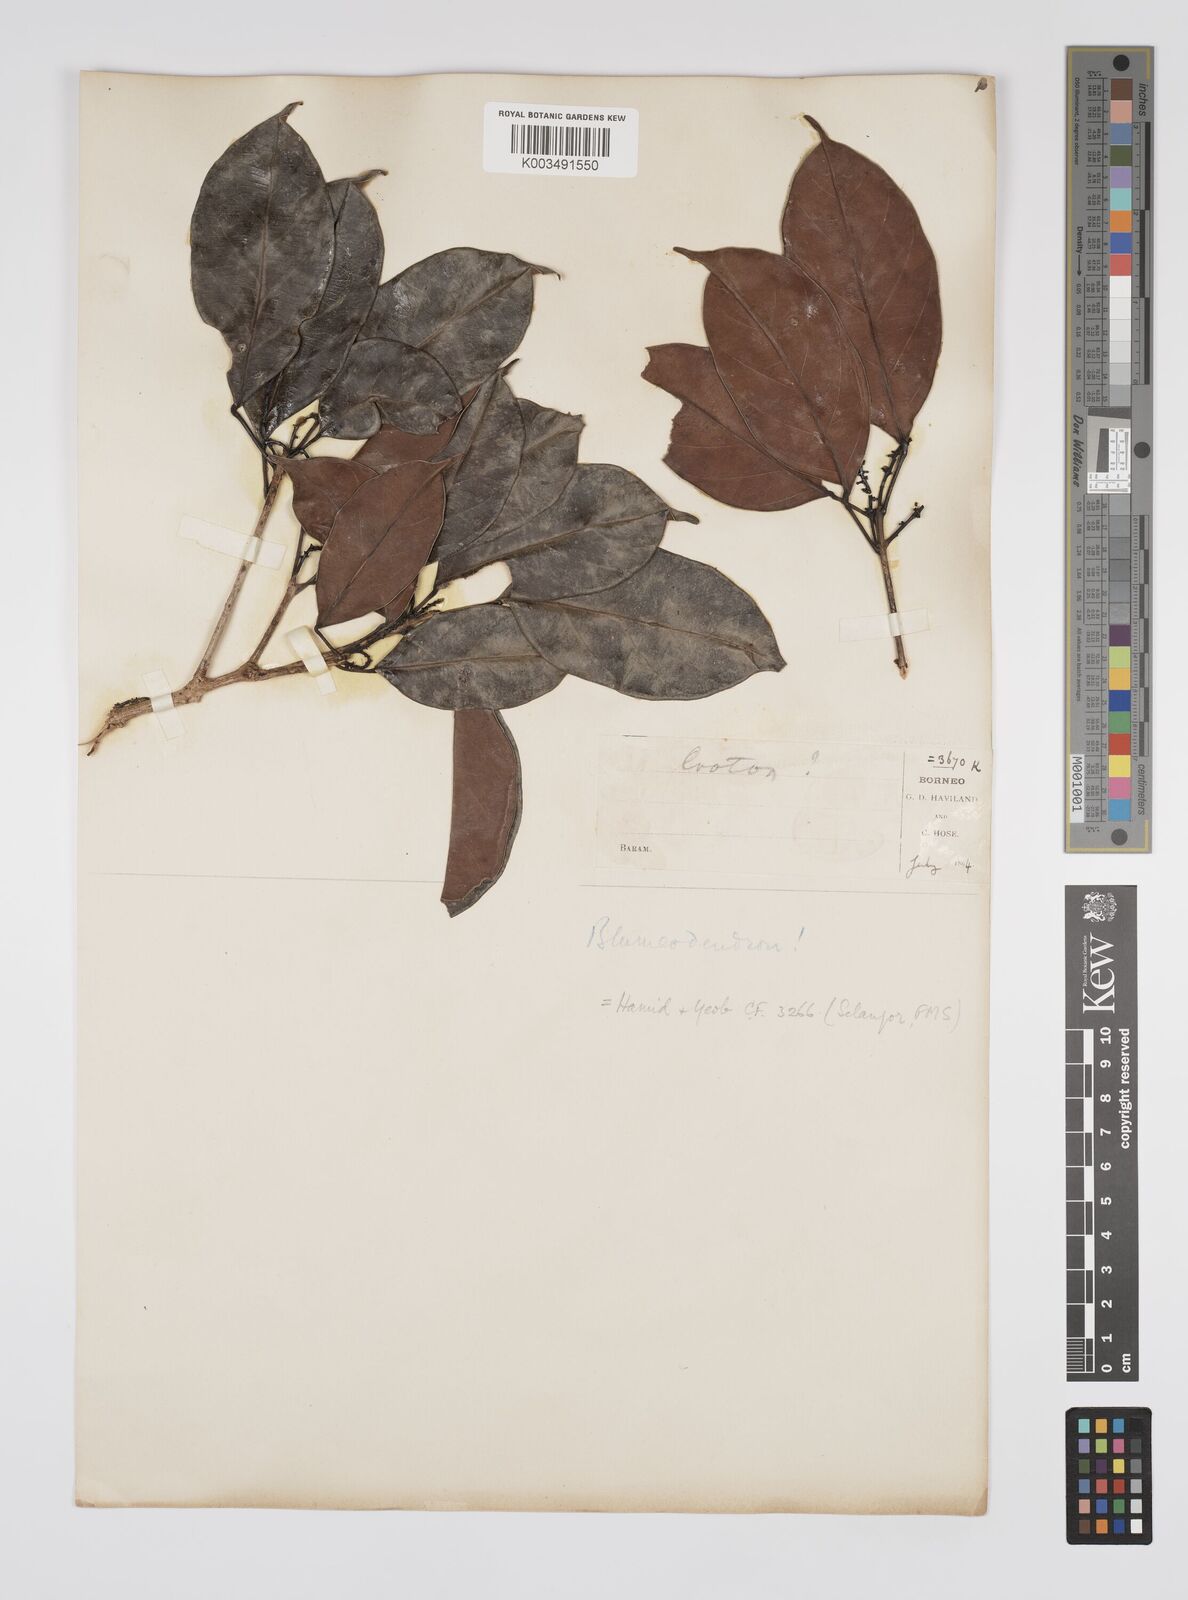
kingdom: Plantae
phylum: Tracheophyta
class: Magnoliopsida
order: Malpighiales
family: Euphorbiaceae
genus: Blumeodendron
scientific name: Blumeodendron
